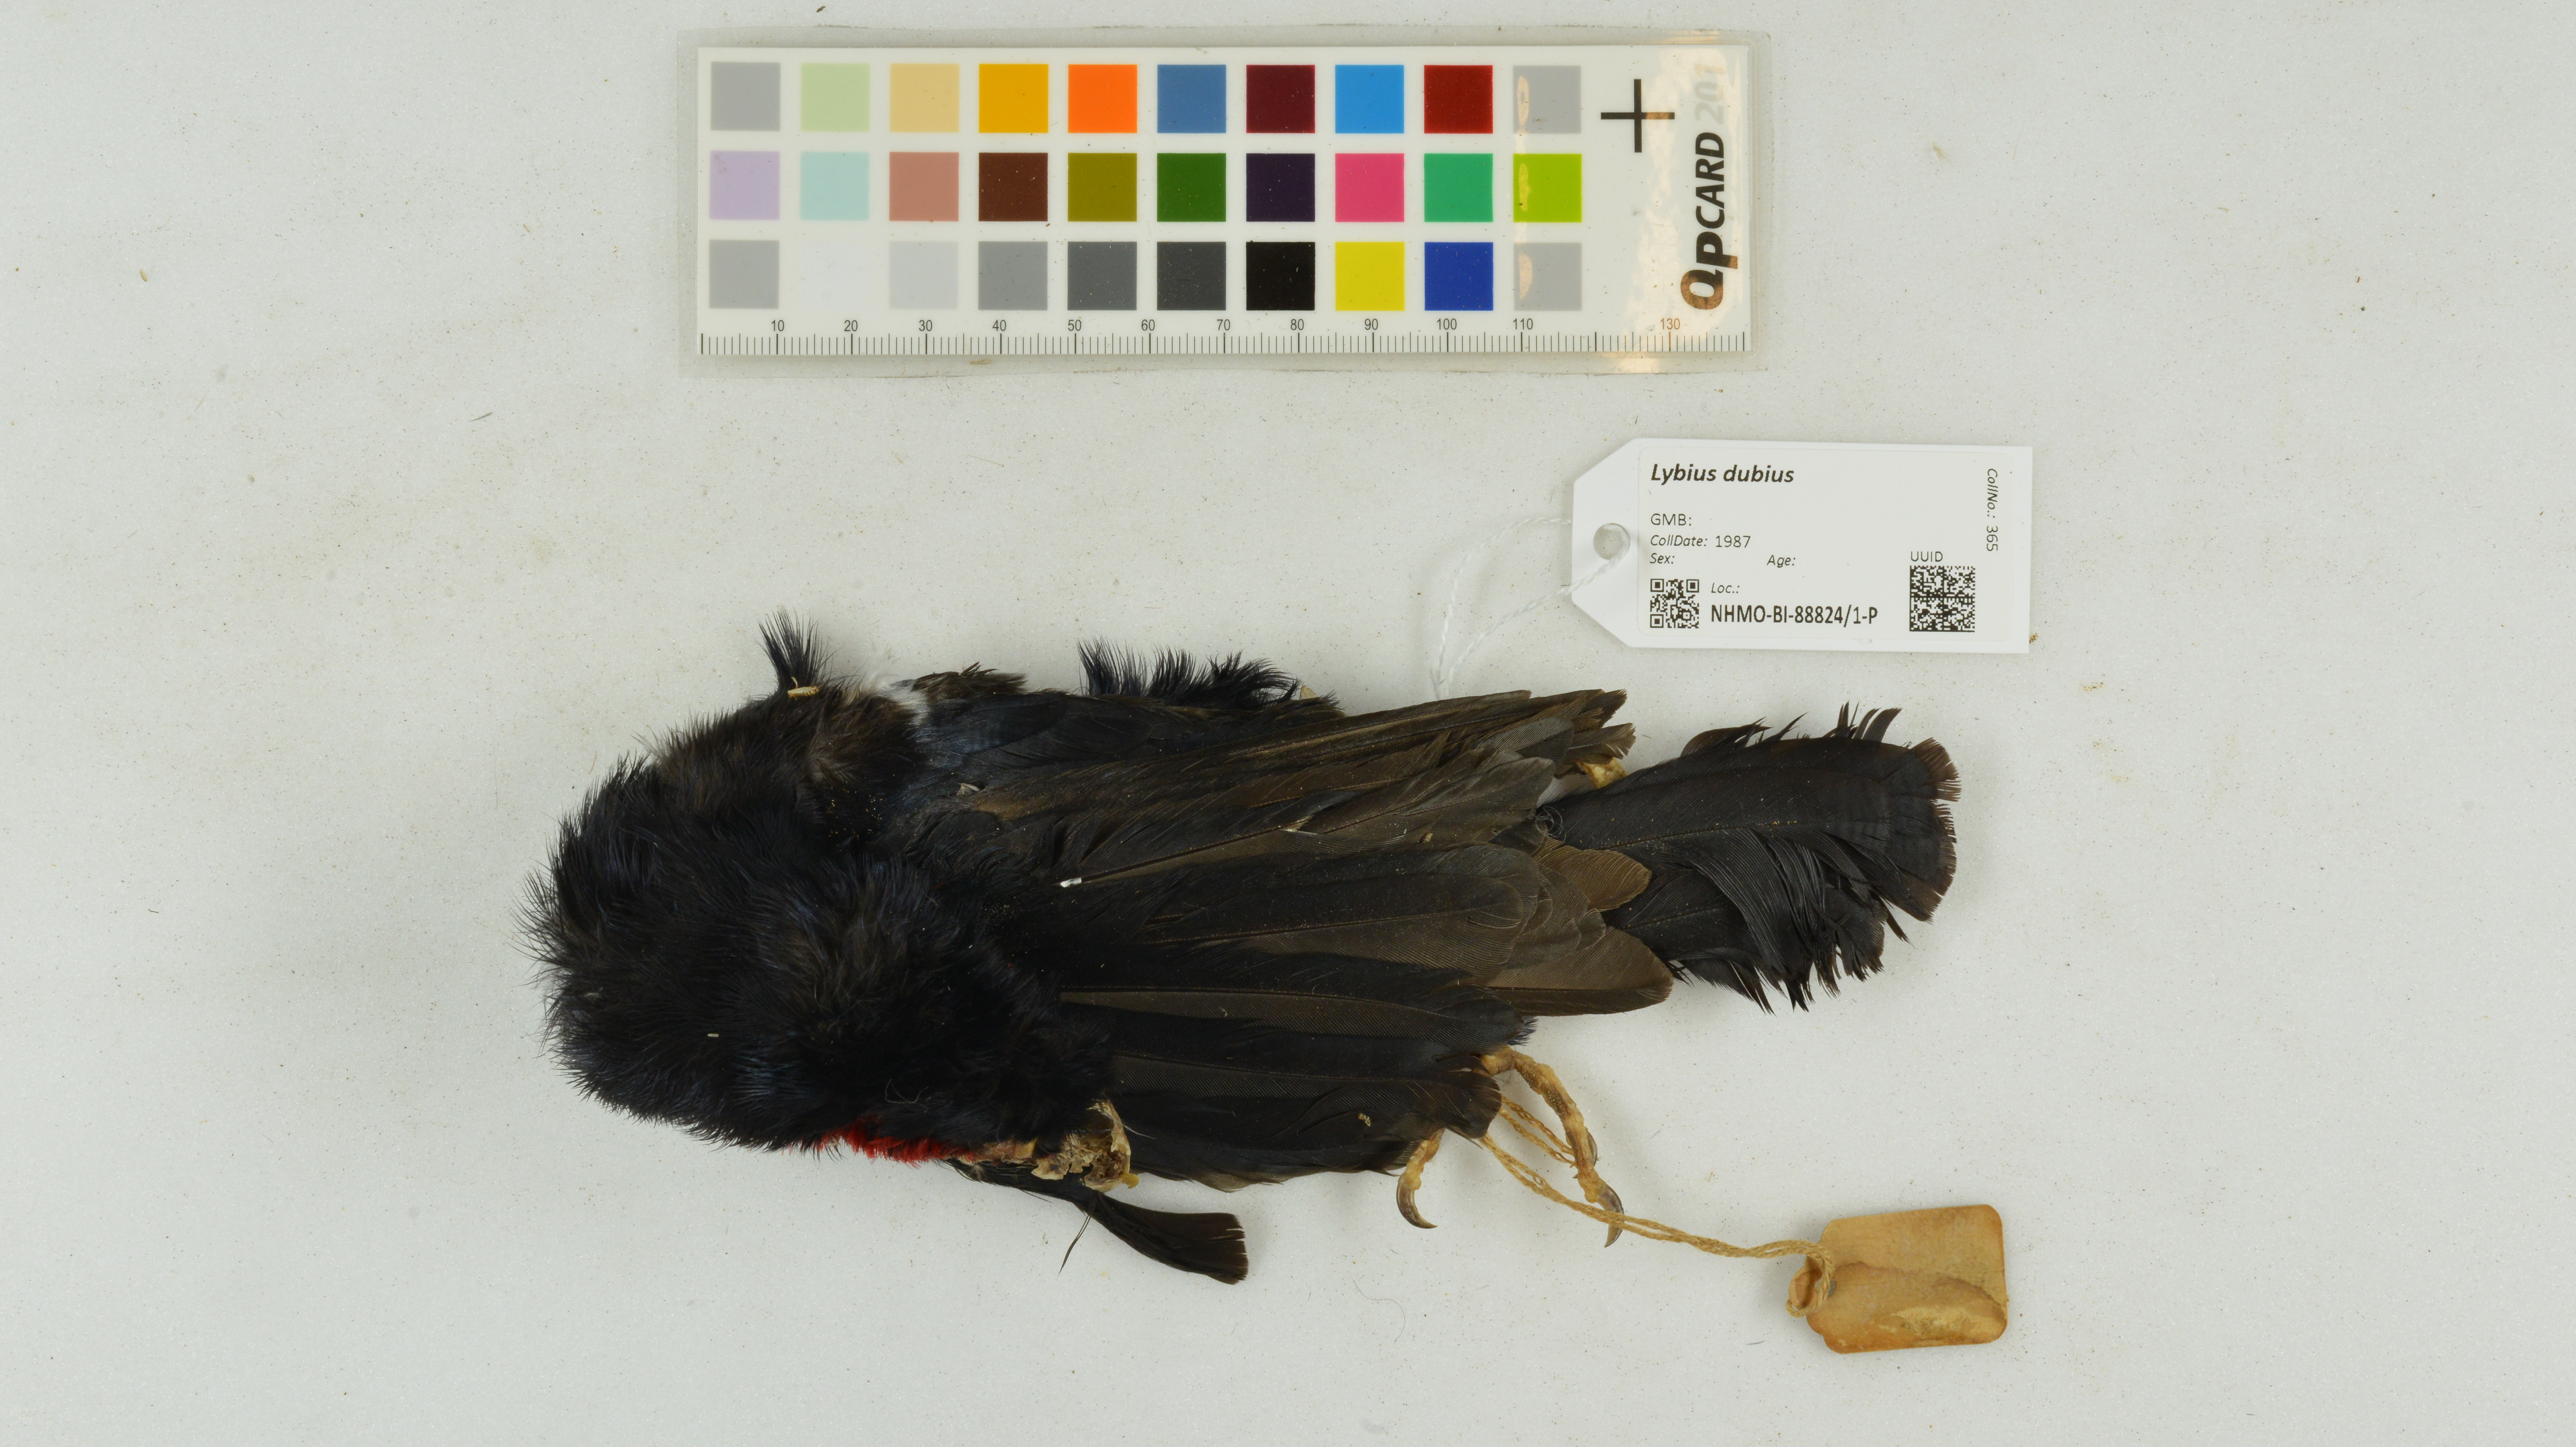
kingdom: Animalia
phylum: Chordata
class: Aves
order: Piciformes
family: Lybiidae
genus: Lybius
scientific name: Lybius dubius
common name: Bearded barbet
